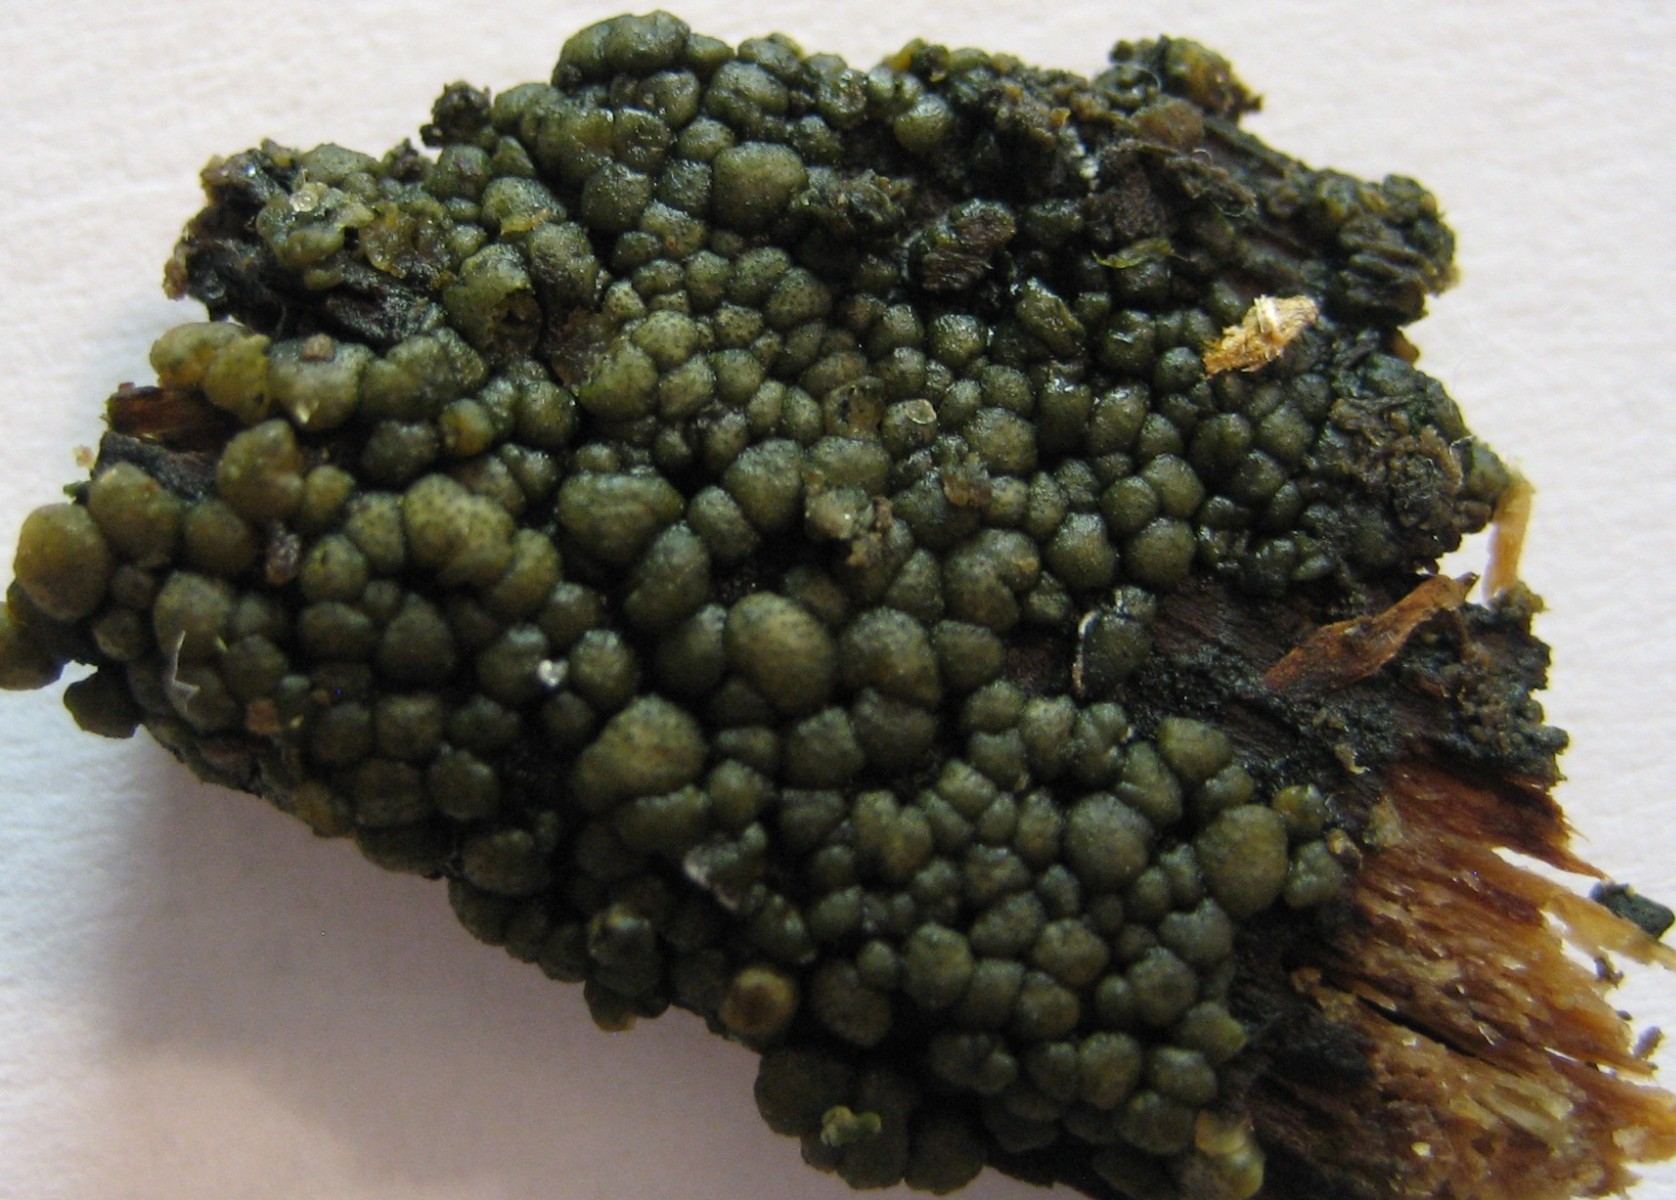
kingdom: Fungi
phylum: Ascomycota
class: Sordariomycetes
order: Hypocreales
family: Hypocreaceae
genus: Trichoderma
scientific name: Trichoderma strictipile
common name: grønprikket kødkerne
